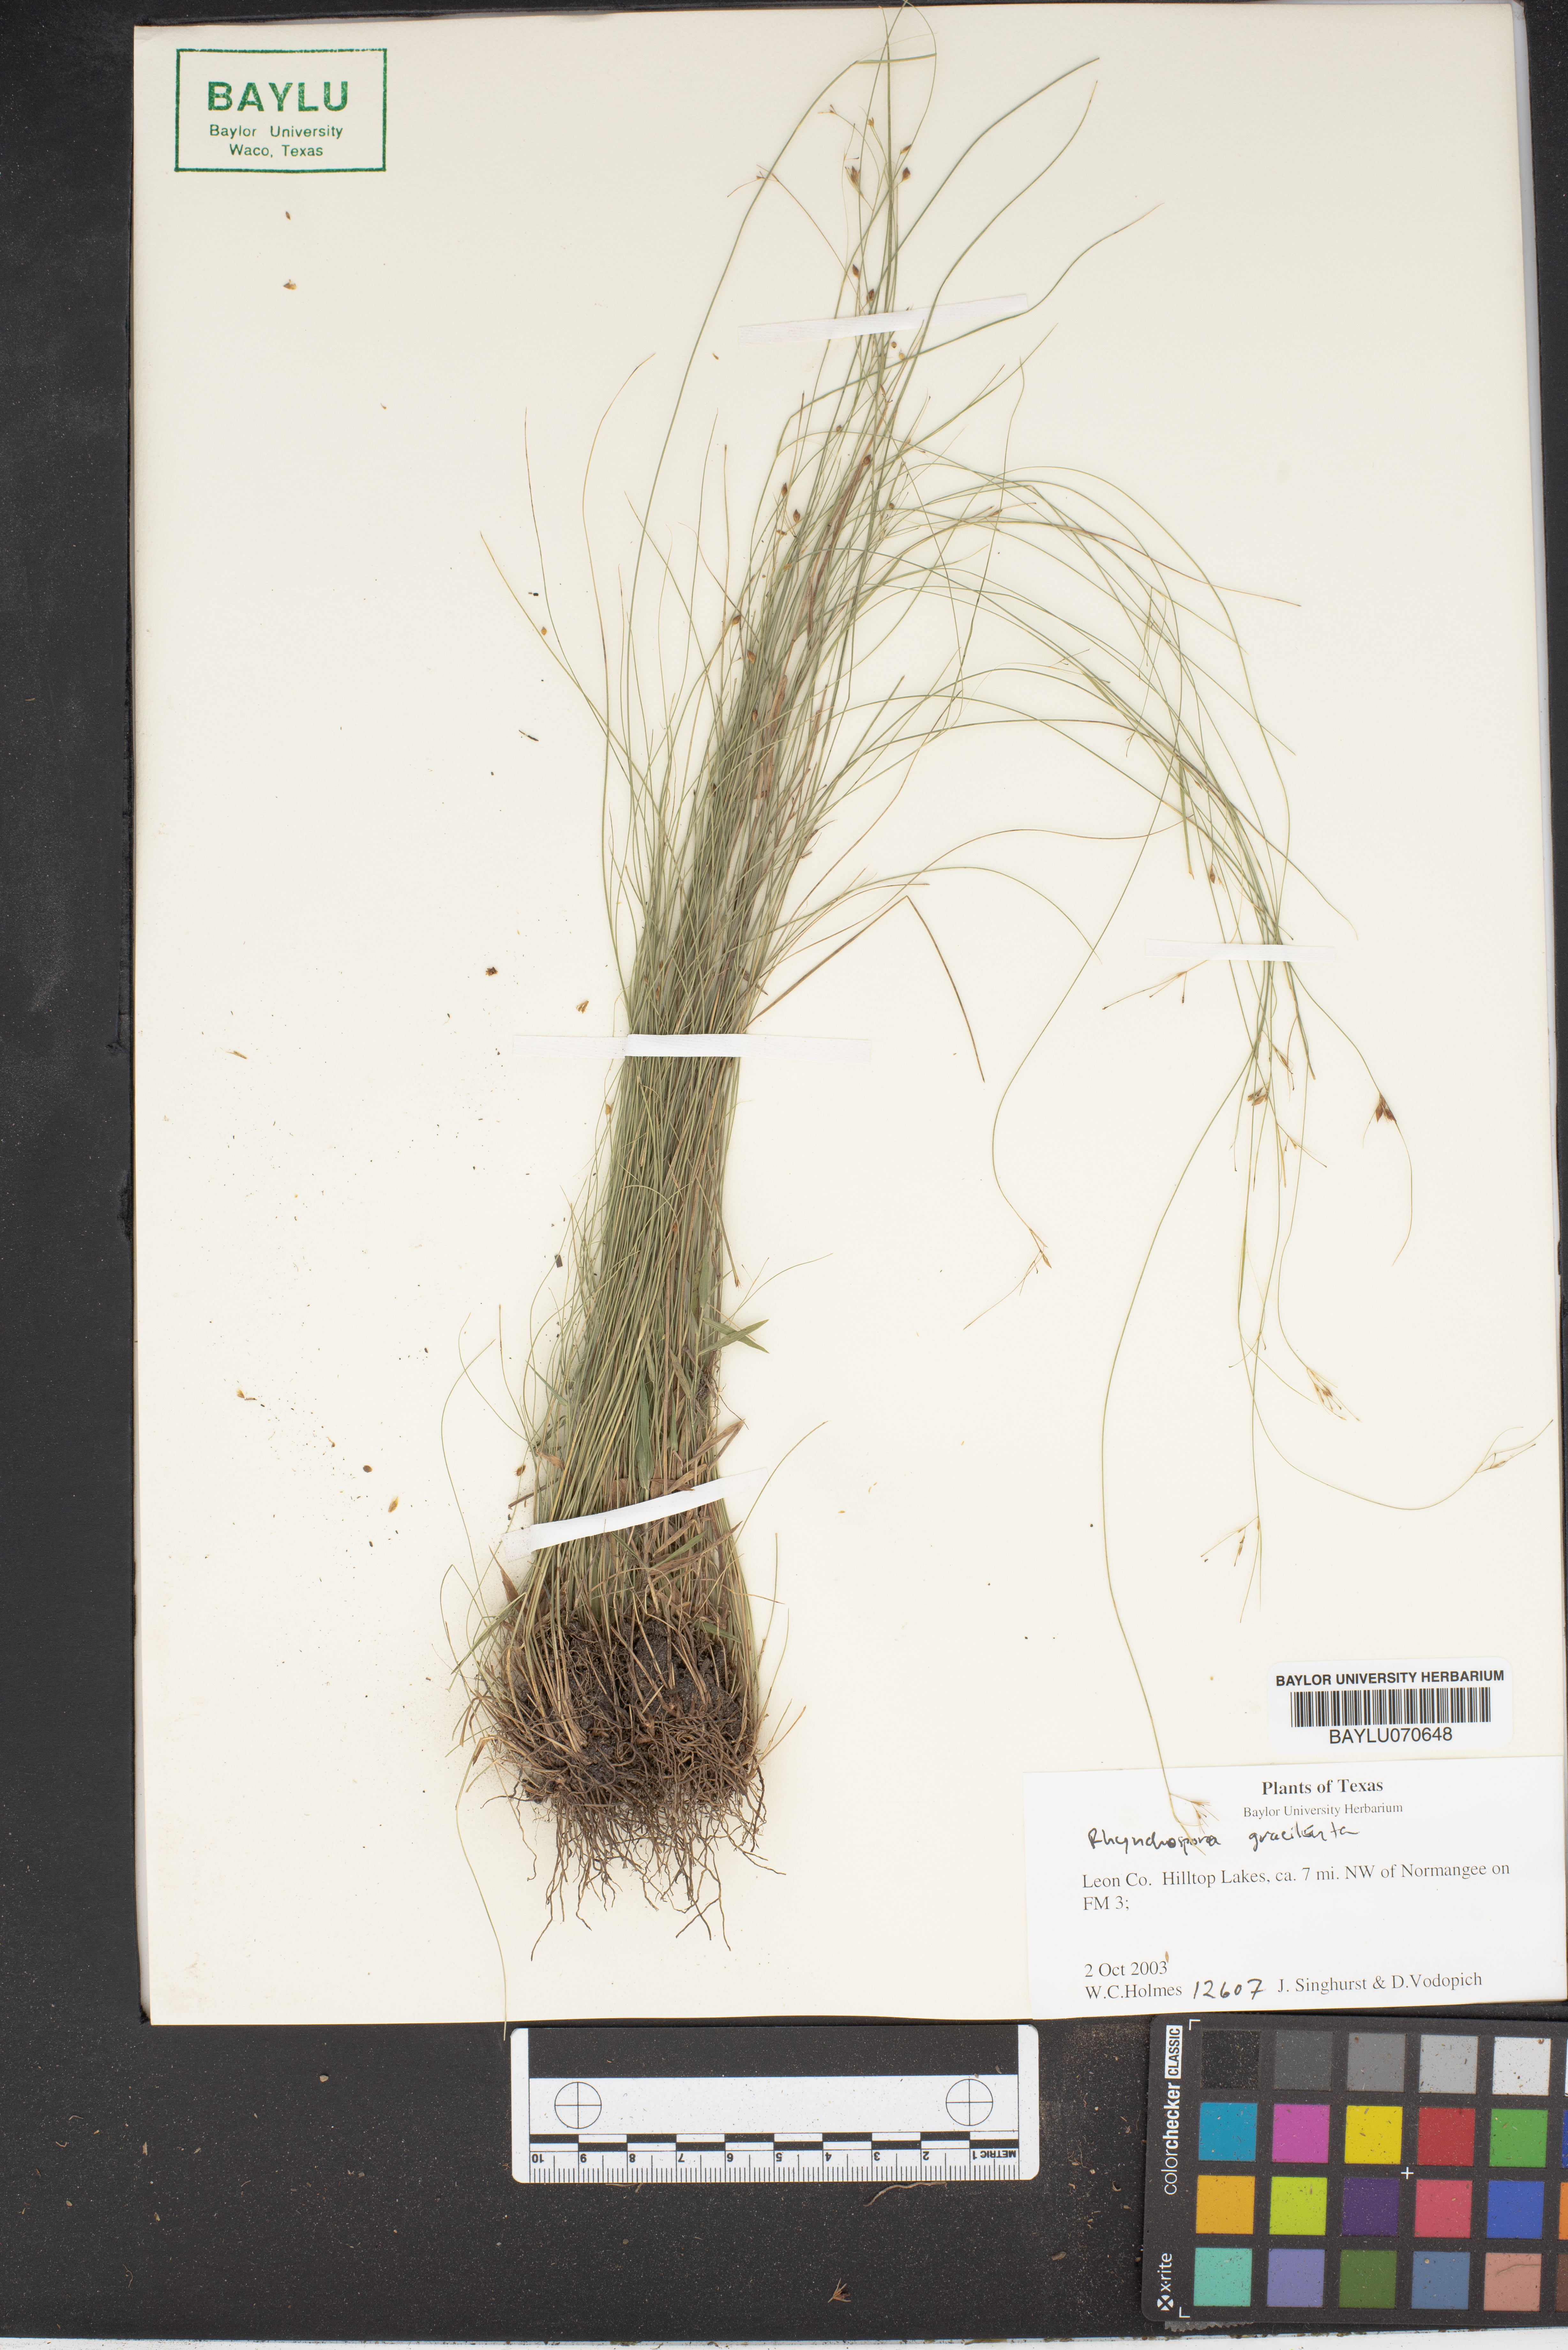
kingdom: Plantae
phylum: Tracheophyta
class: Liliopsida
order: Poales
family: Cyperaceae
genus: Rhynchospora
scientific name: Rhynchospora gracilenta
